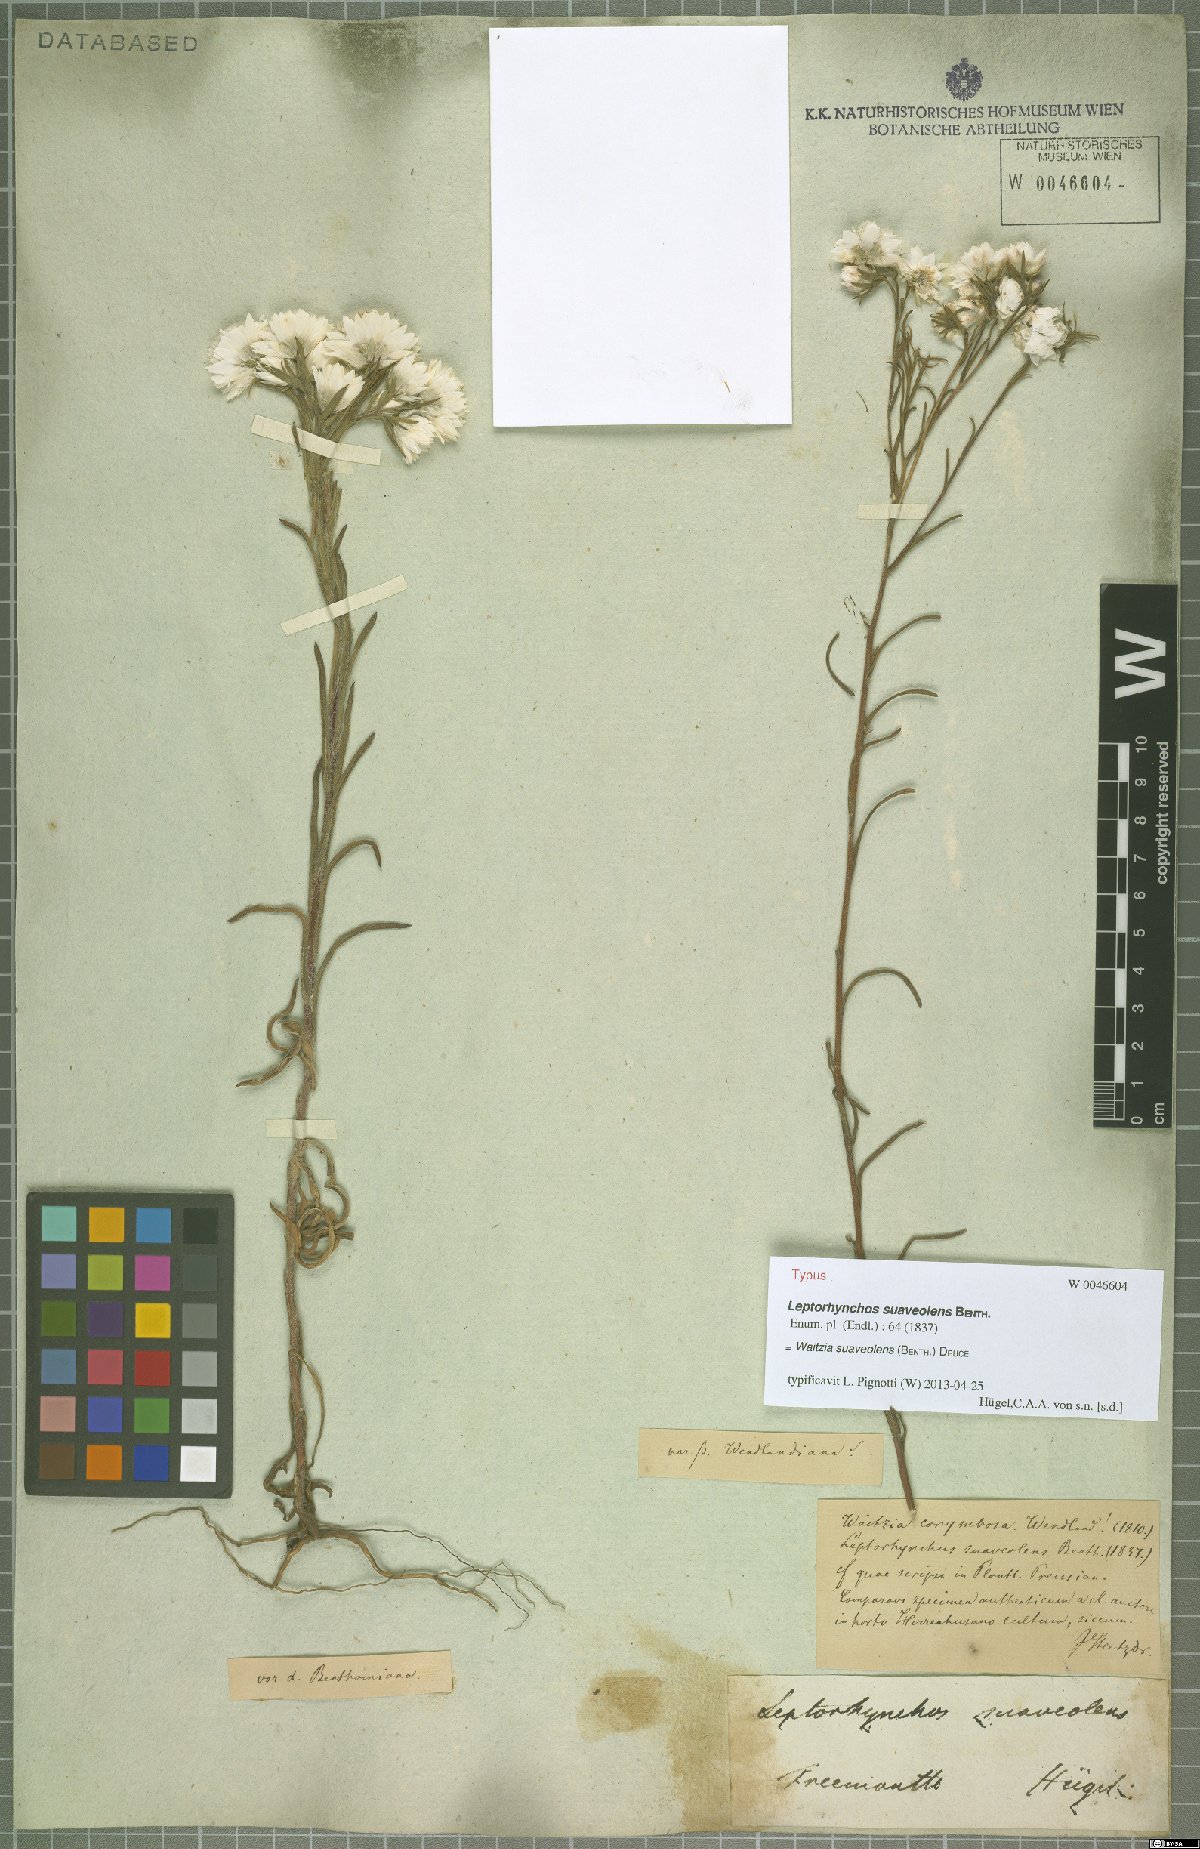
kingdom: Plantae
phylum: Tracheophyta
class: Magnoliopsida
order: Asterales
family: Asteraceae
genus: Waitzia
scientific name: Waitzia suaveolens
